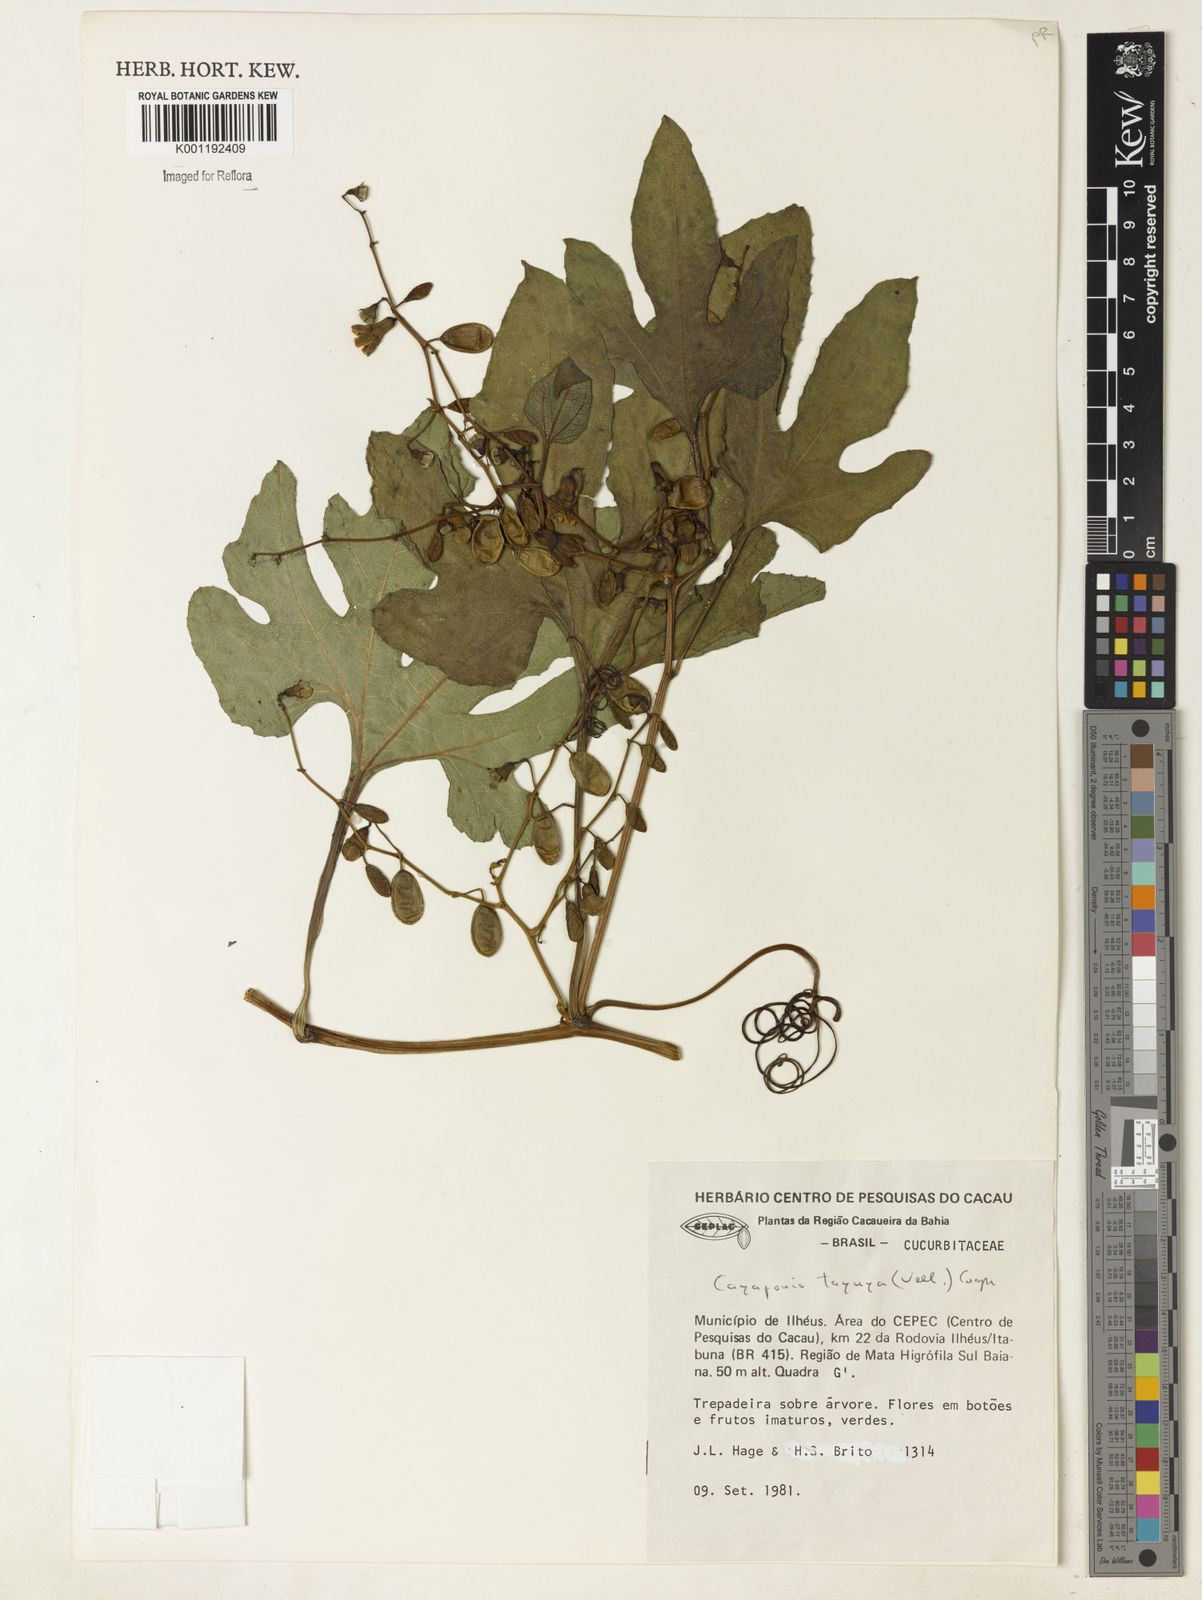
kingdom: Plantae
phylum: Tracheophyta
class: Magnoliopsida
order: Cucurbitales
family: Cucurbitaceae
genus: Cayaponia
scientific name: Cayaponia tayuya
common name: Tayuya
